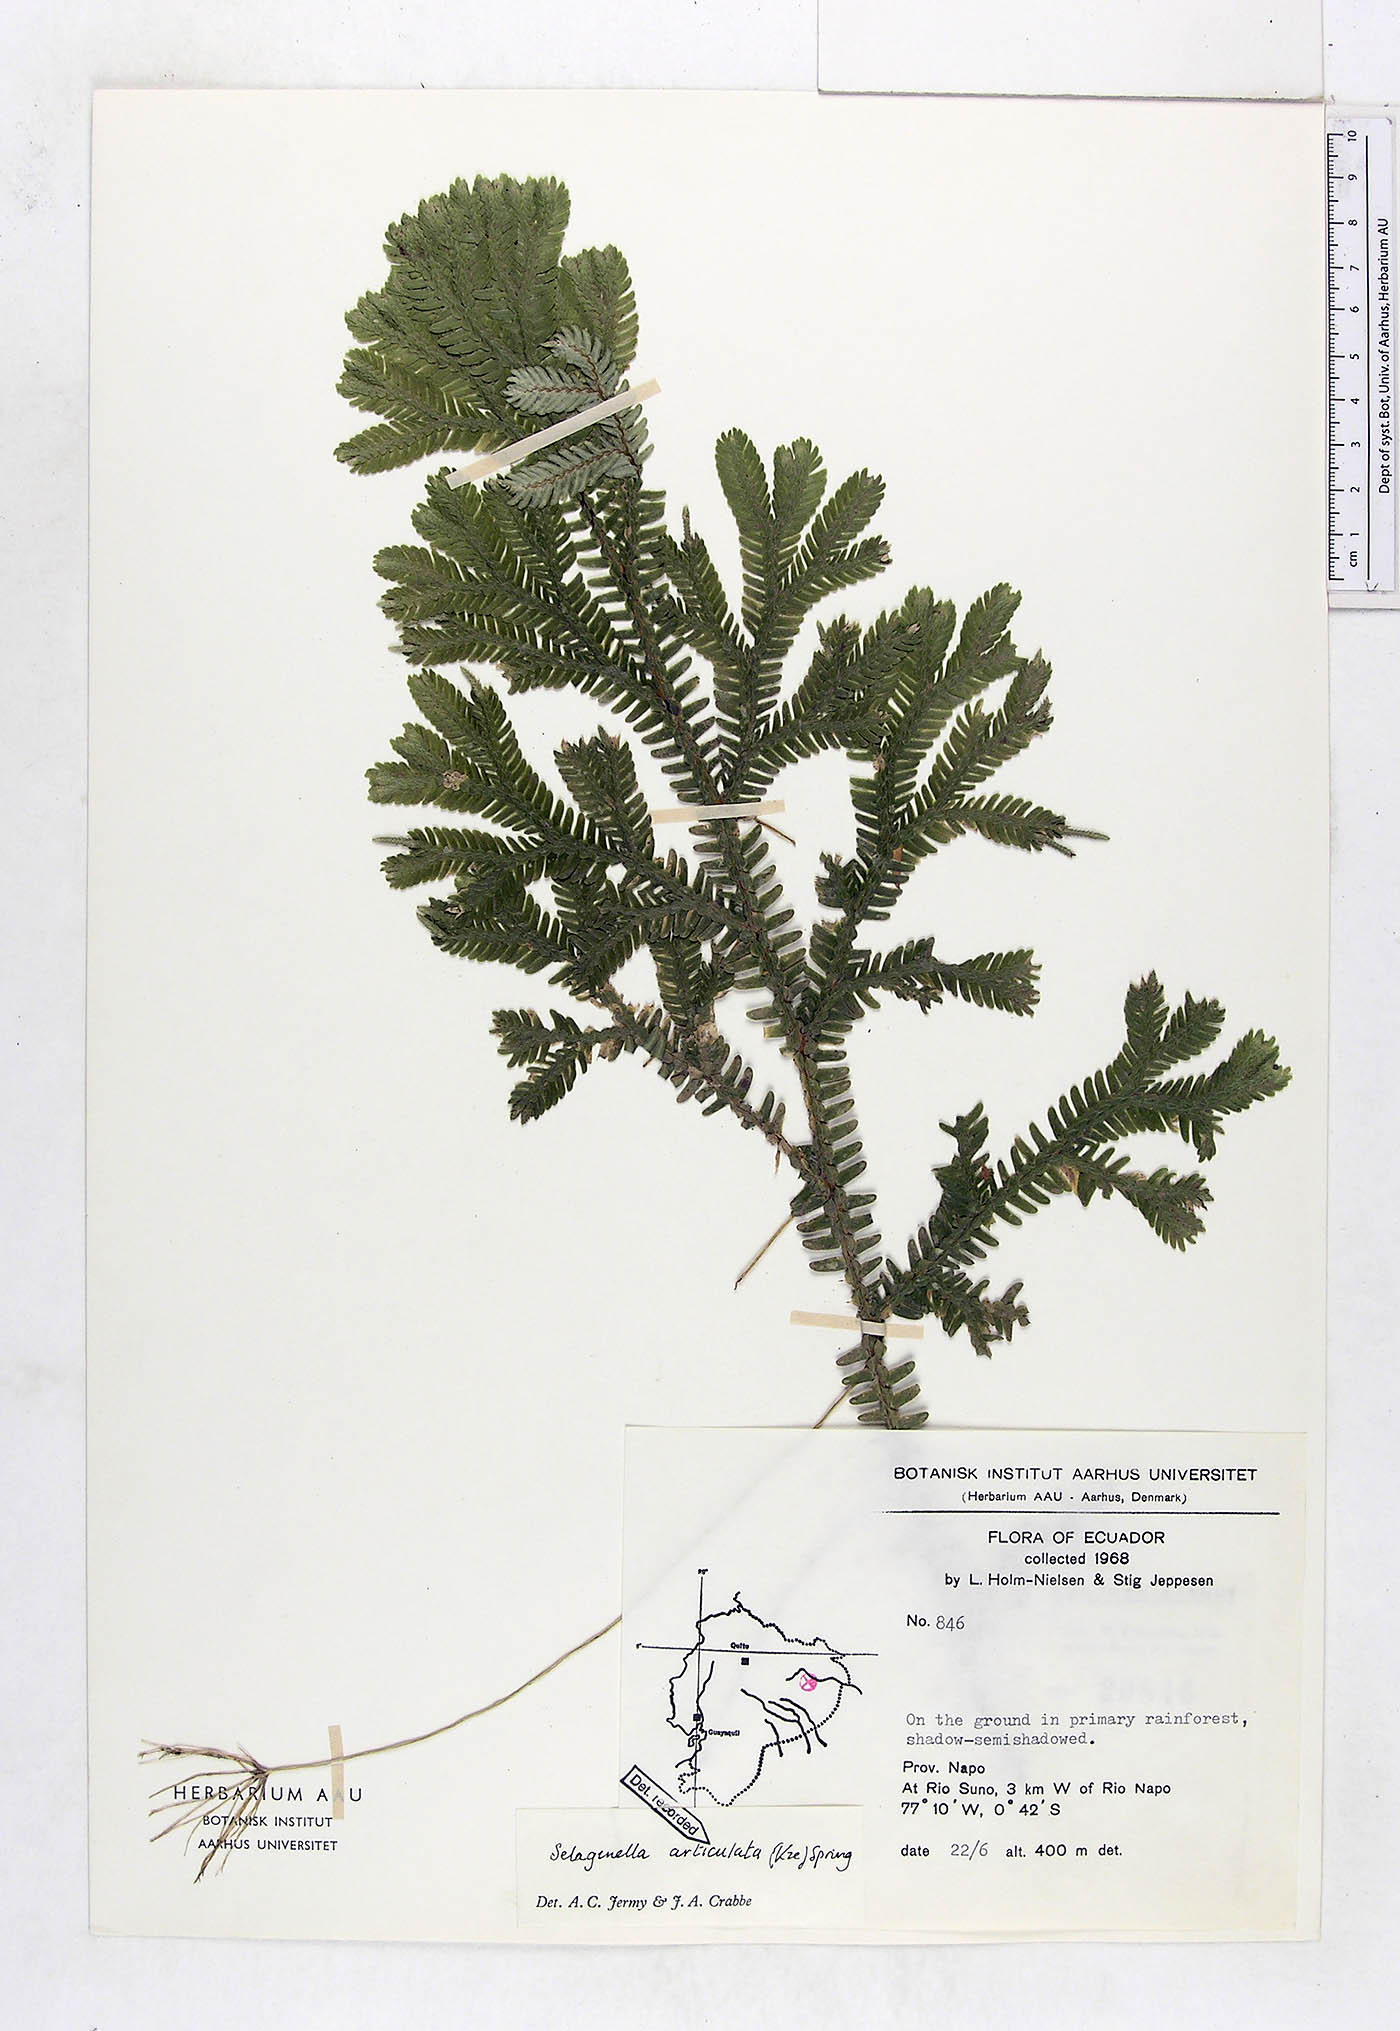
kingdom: Plantae
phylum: Tracheophyta
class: Lycopodiopsida
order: Selaginellales
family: Selaginellaceae
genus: Selaginella
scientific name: Selaginella articulata
